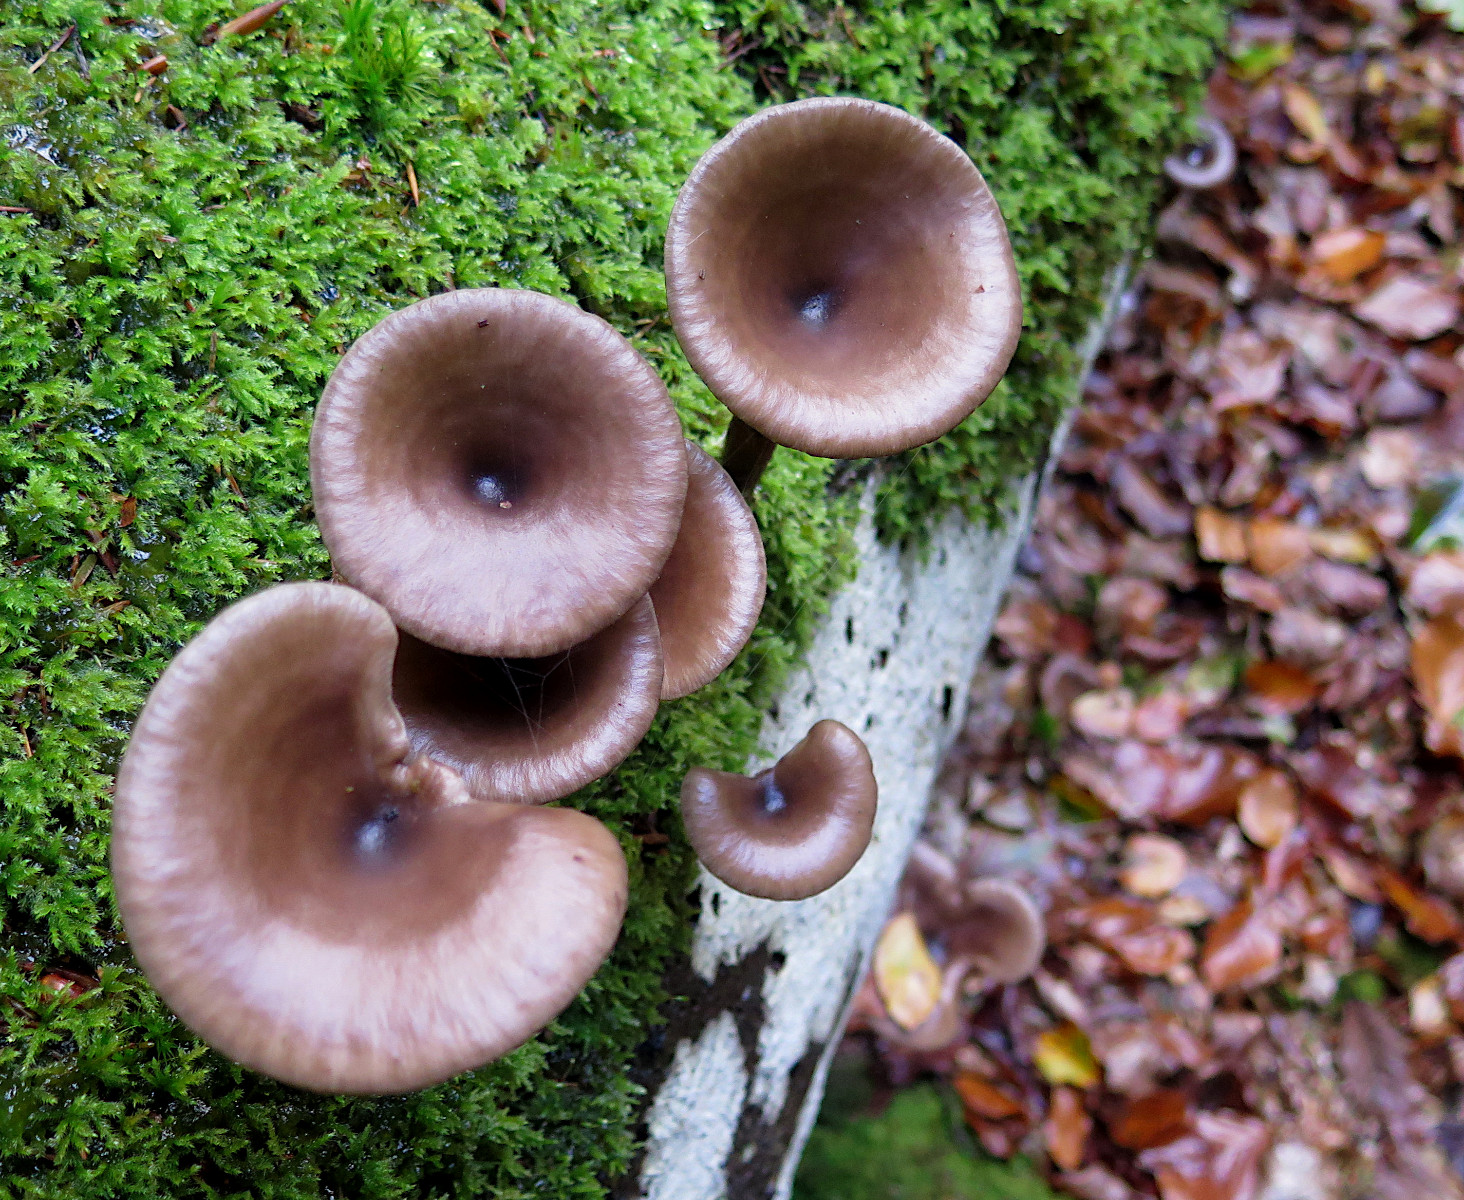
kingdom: Fungi
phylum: Basidiomycota
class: Agaricomycetes
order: Agaricales
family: Pseudoclitocybaceae
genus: Pseudoclitocybe
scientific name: Pseudoclitocybe cyathiformis
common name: almindelig bægertragthat
